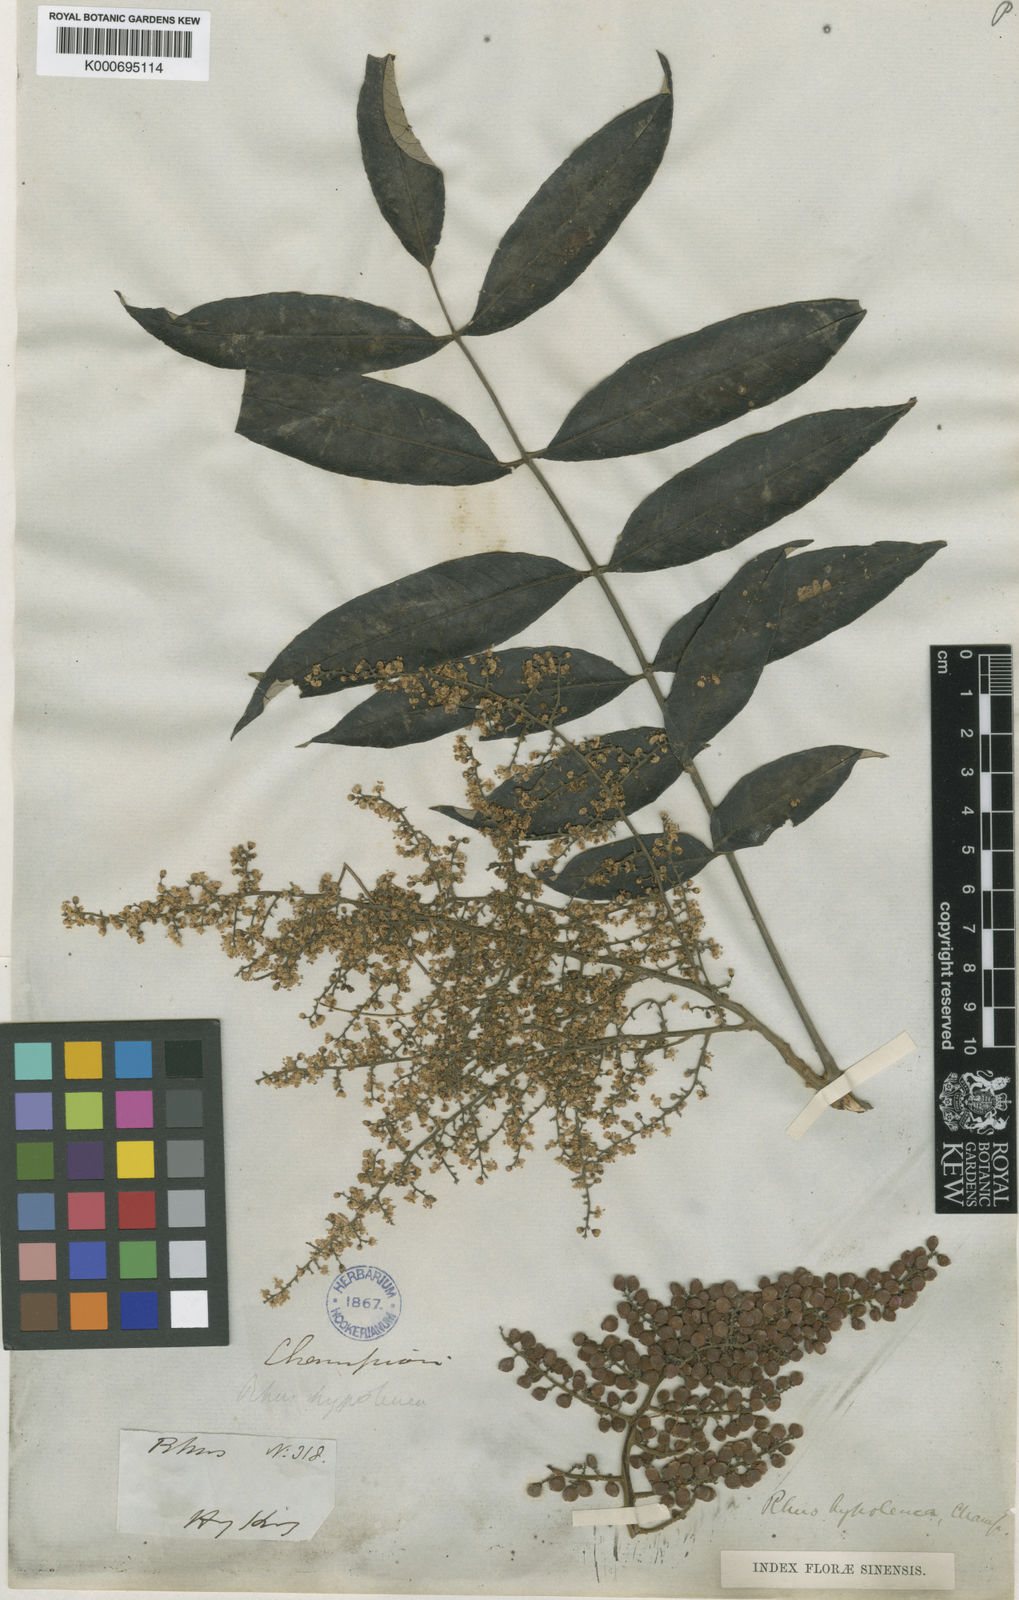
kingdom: Plantae
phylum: Tracheophyta
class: Magnoliopsida
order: Sapindales
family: Anacardiaceae
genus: Rhus
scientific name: Rhus hypoleuca
